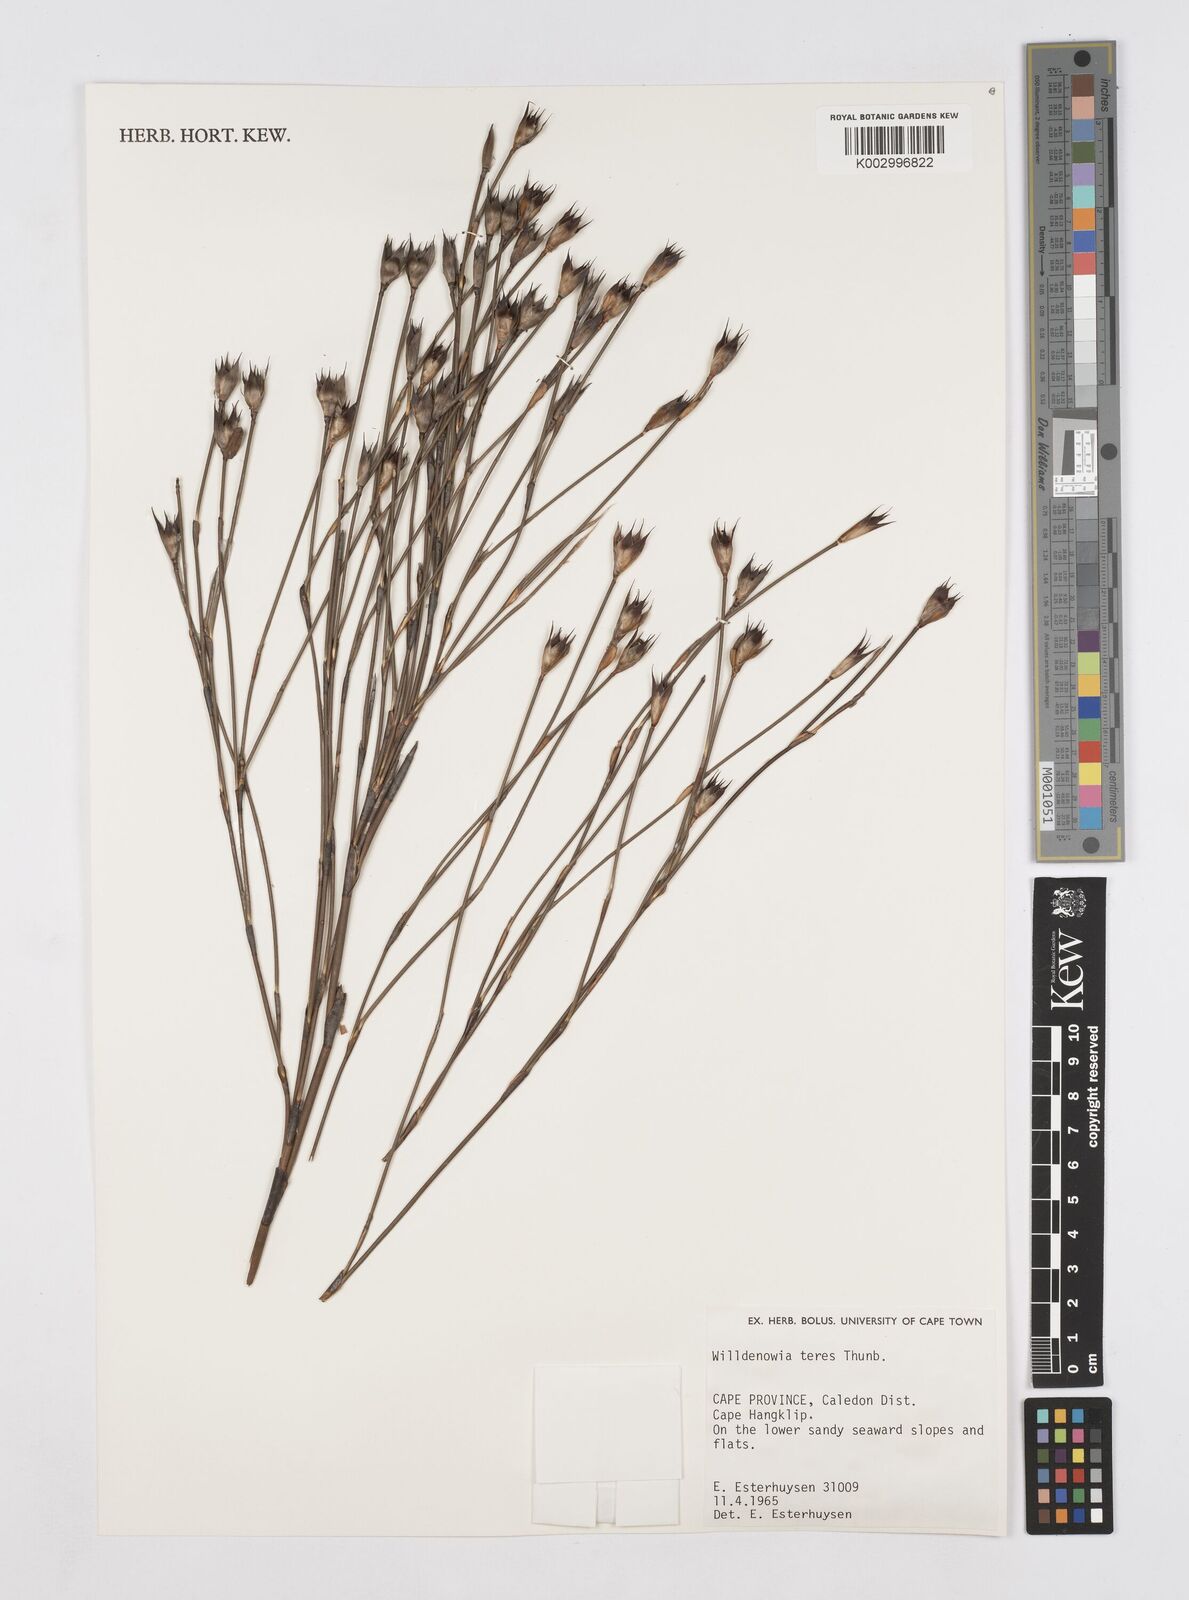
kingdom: Plantae
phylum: Tracheophyta
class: Liliopsida
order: Poales
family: Restionaceae
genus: Willdenowia
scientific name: Willdenowia teres
